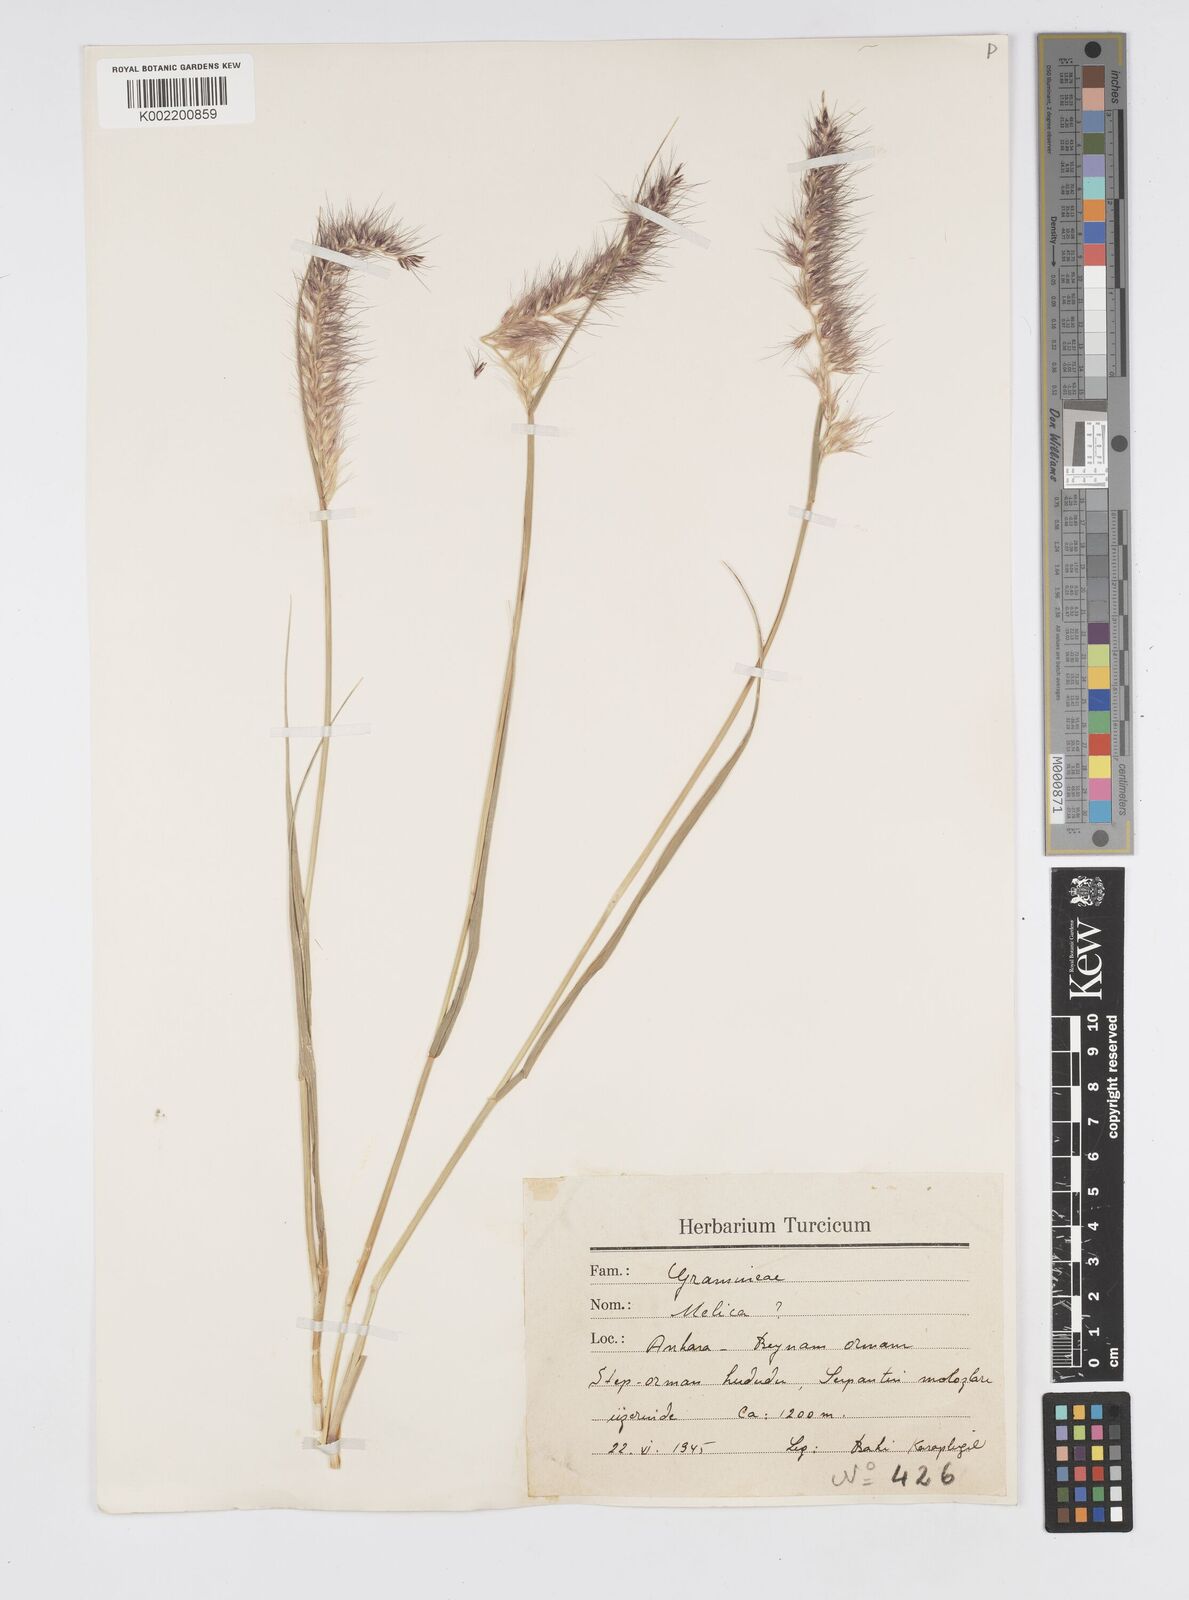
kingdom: Plantae
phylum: Tracheophyta
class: Liliopsida
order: Poales
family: Poaceae
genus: Cenchrus
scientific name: Cenchrus orientalis
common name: Oriental fountain grass
